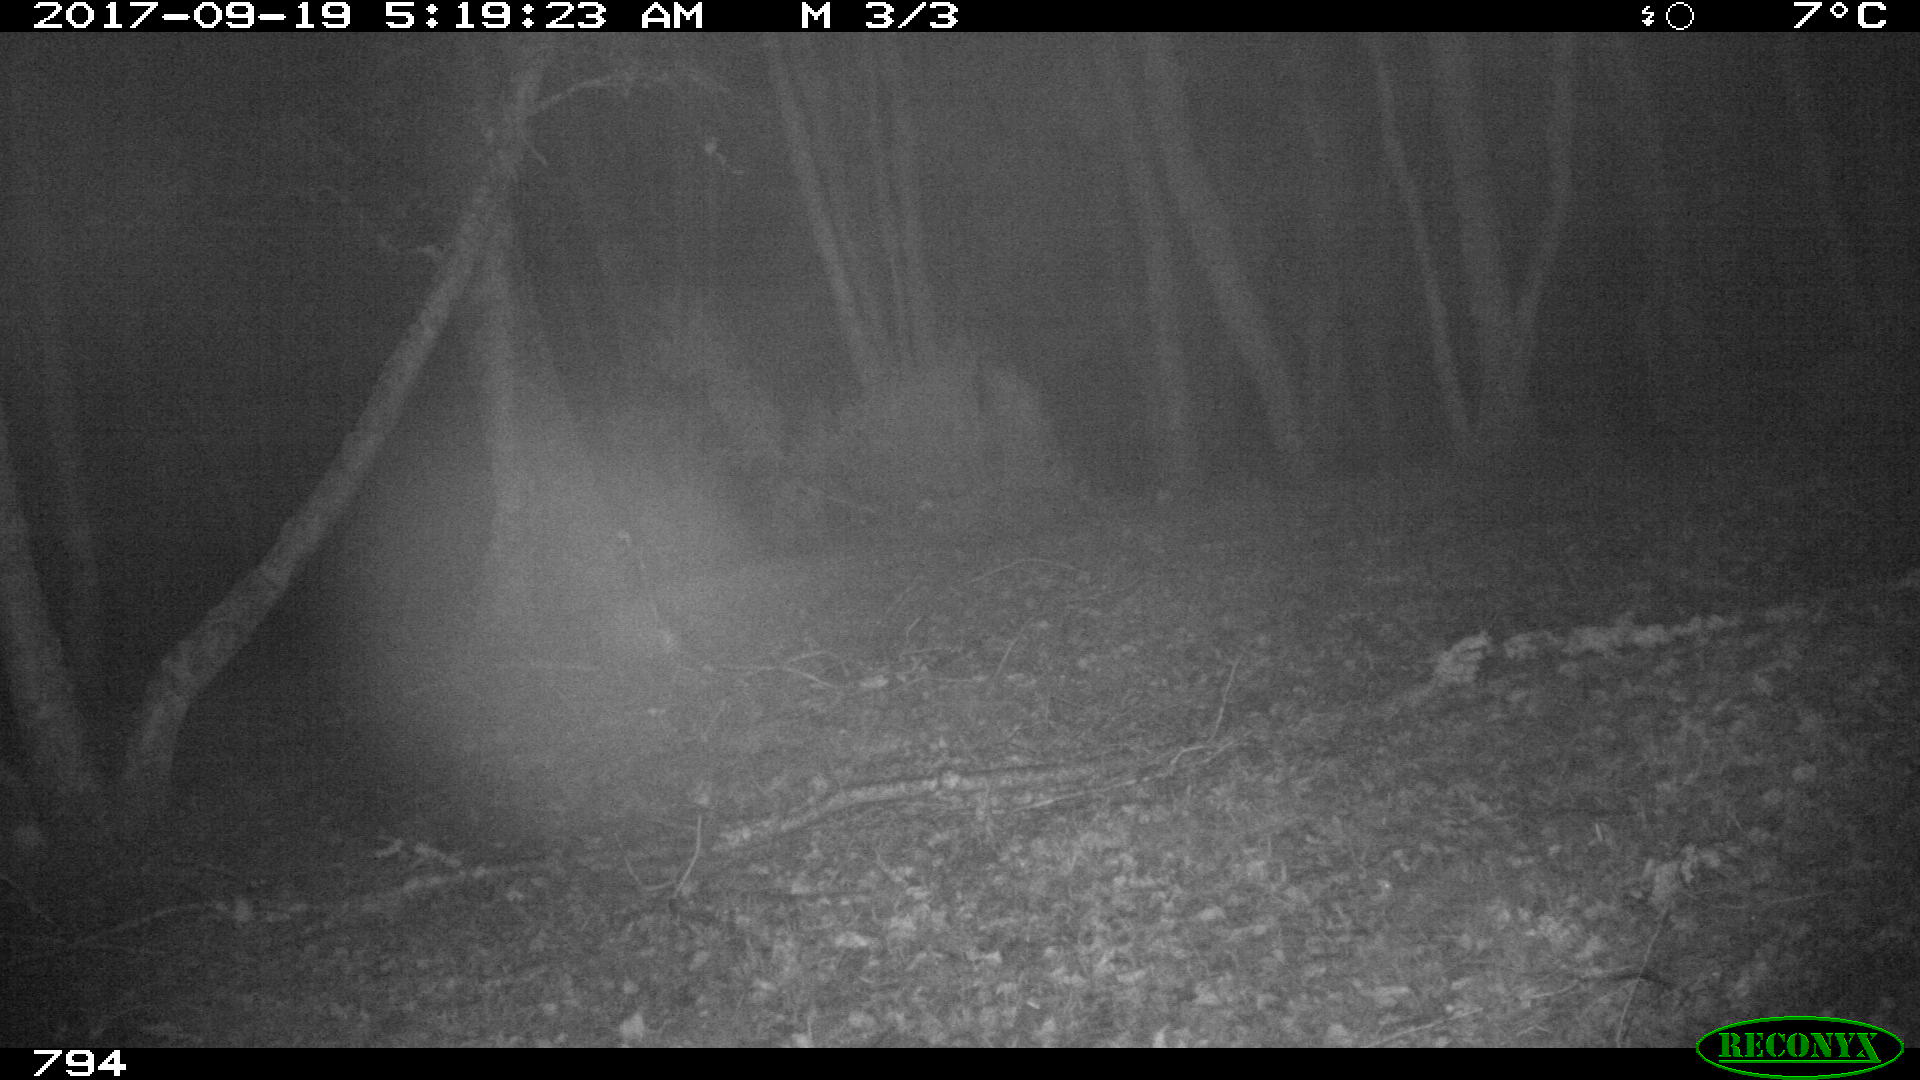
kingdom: Animalia
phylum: Chordata
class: Mammalia
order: Artiodactyla
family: Suidae
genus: Sus
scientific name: Sus scrofa
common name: Wild boar
